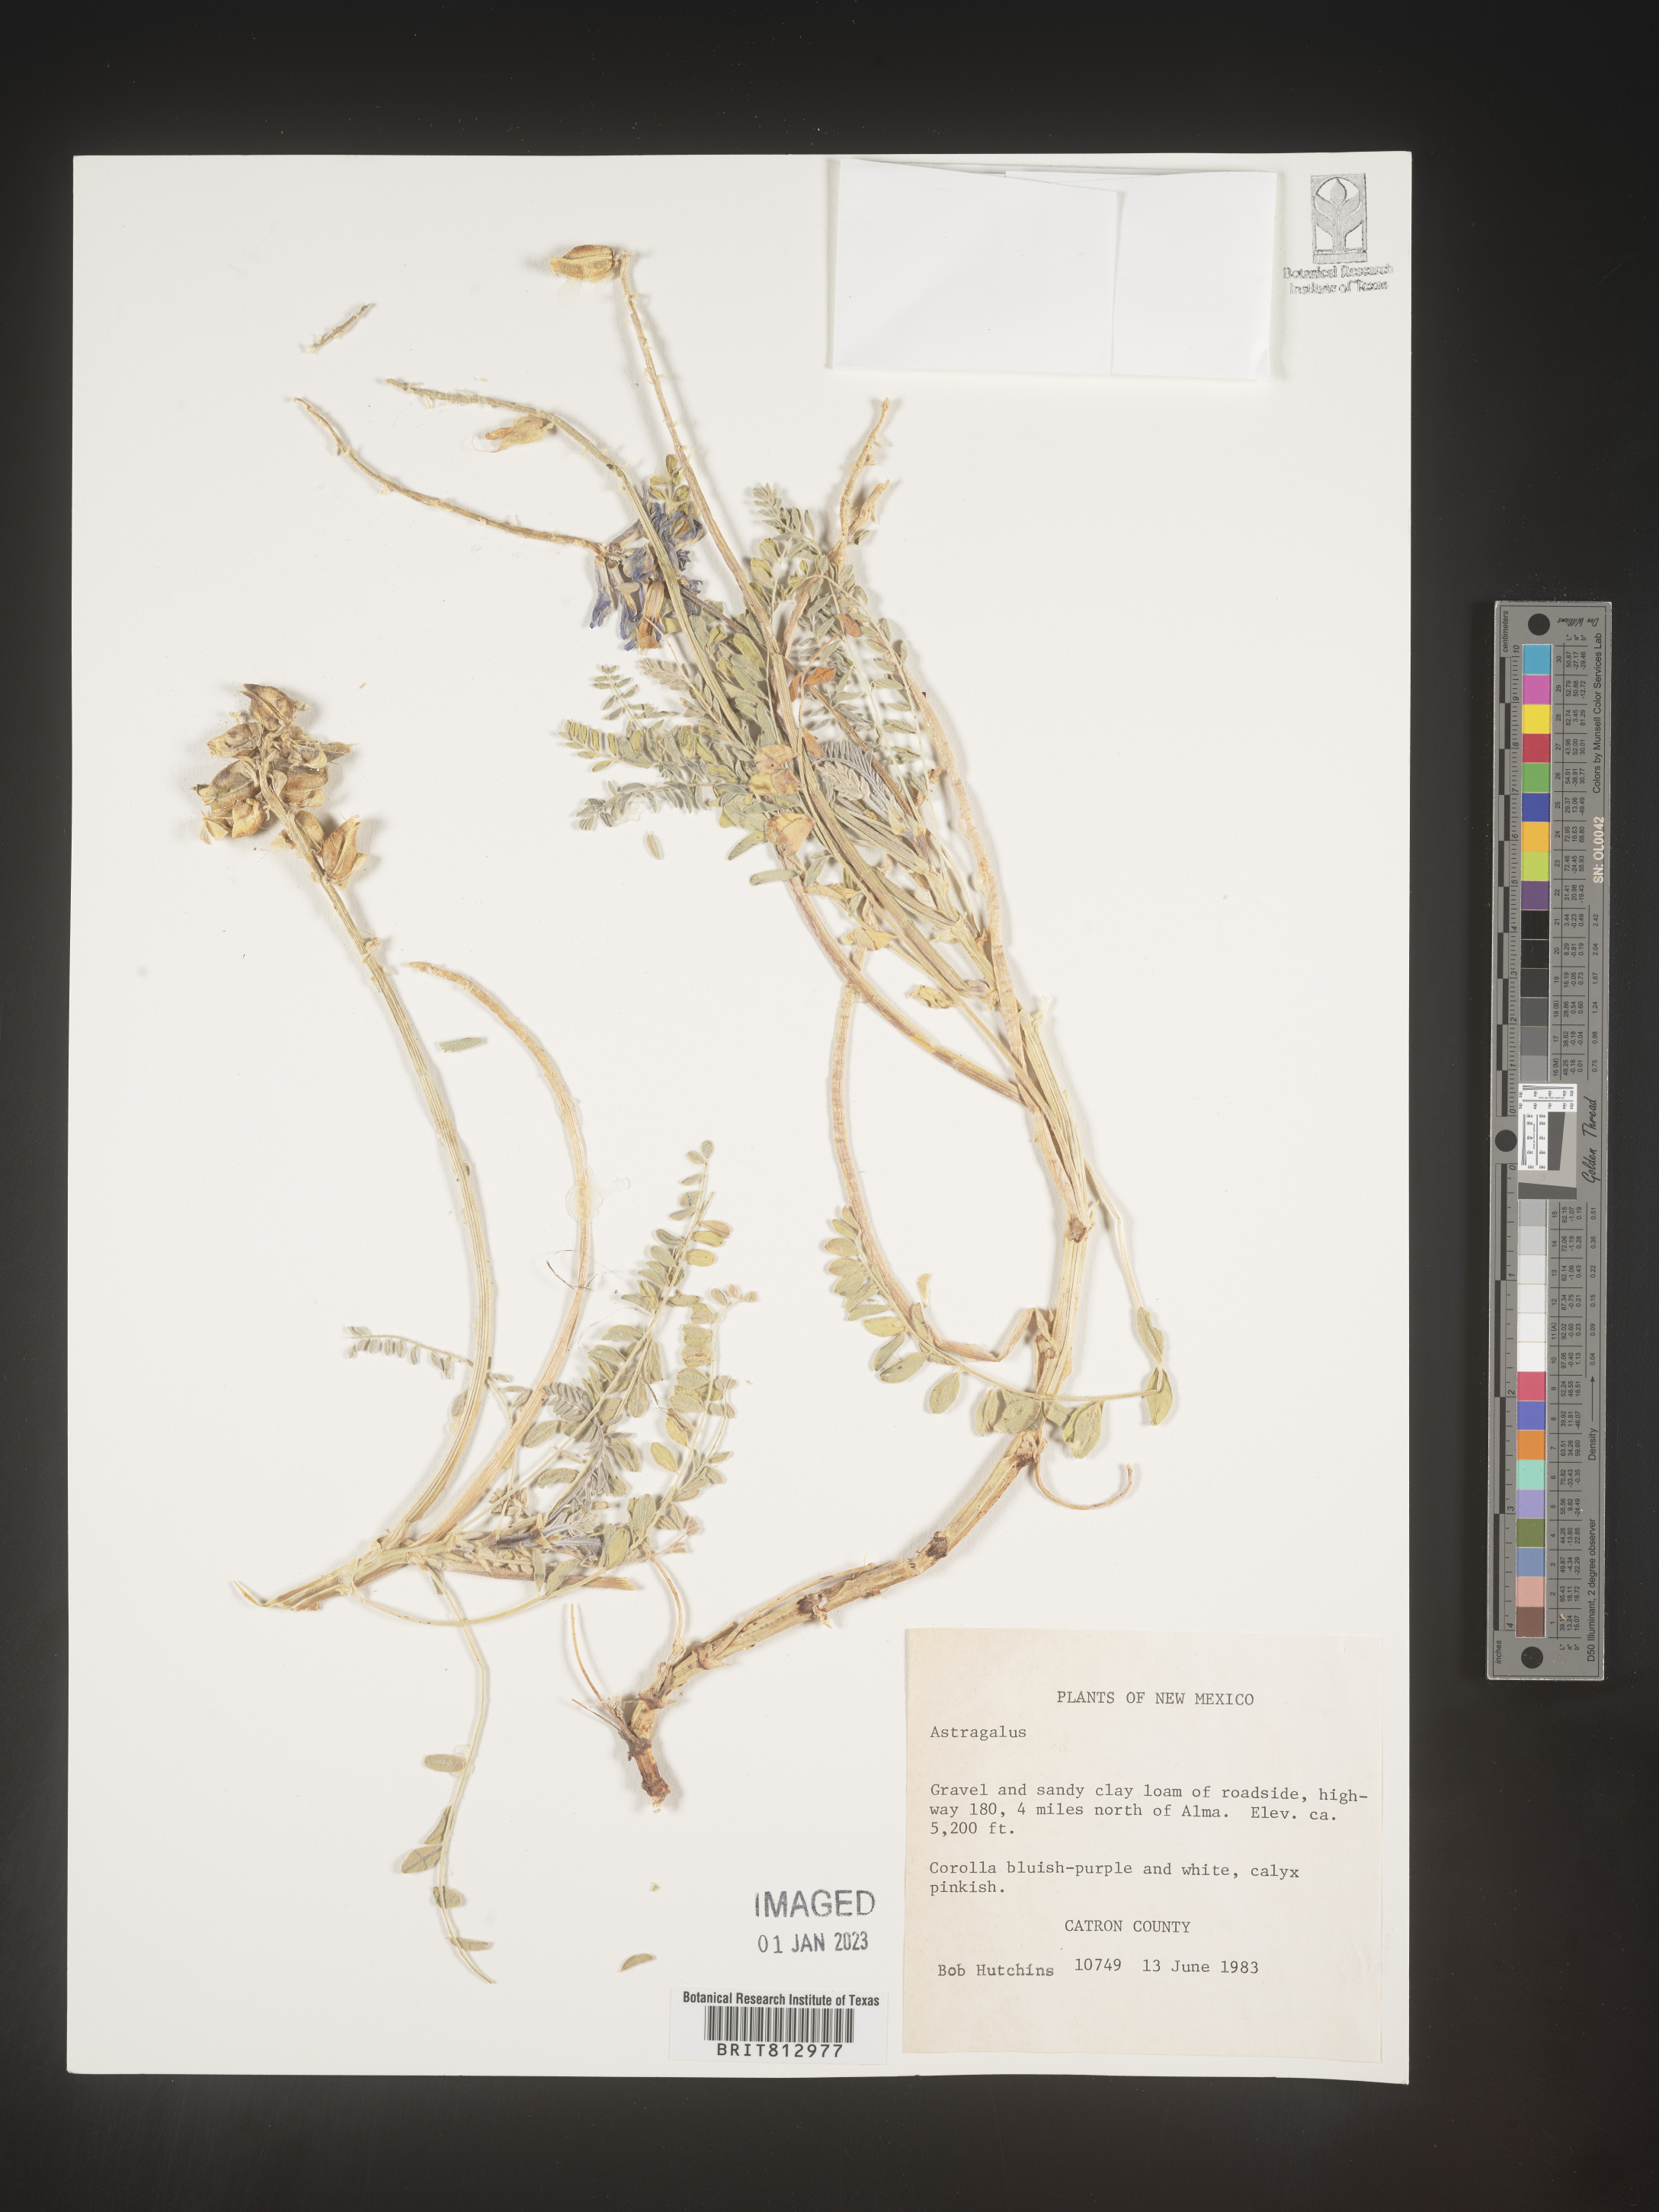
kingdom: Plantae
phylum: Tracheophyta
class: Magnoliopsida
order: Fabales
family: Fabaceae
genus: Astragalus
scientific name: Astragalus
